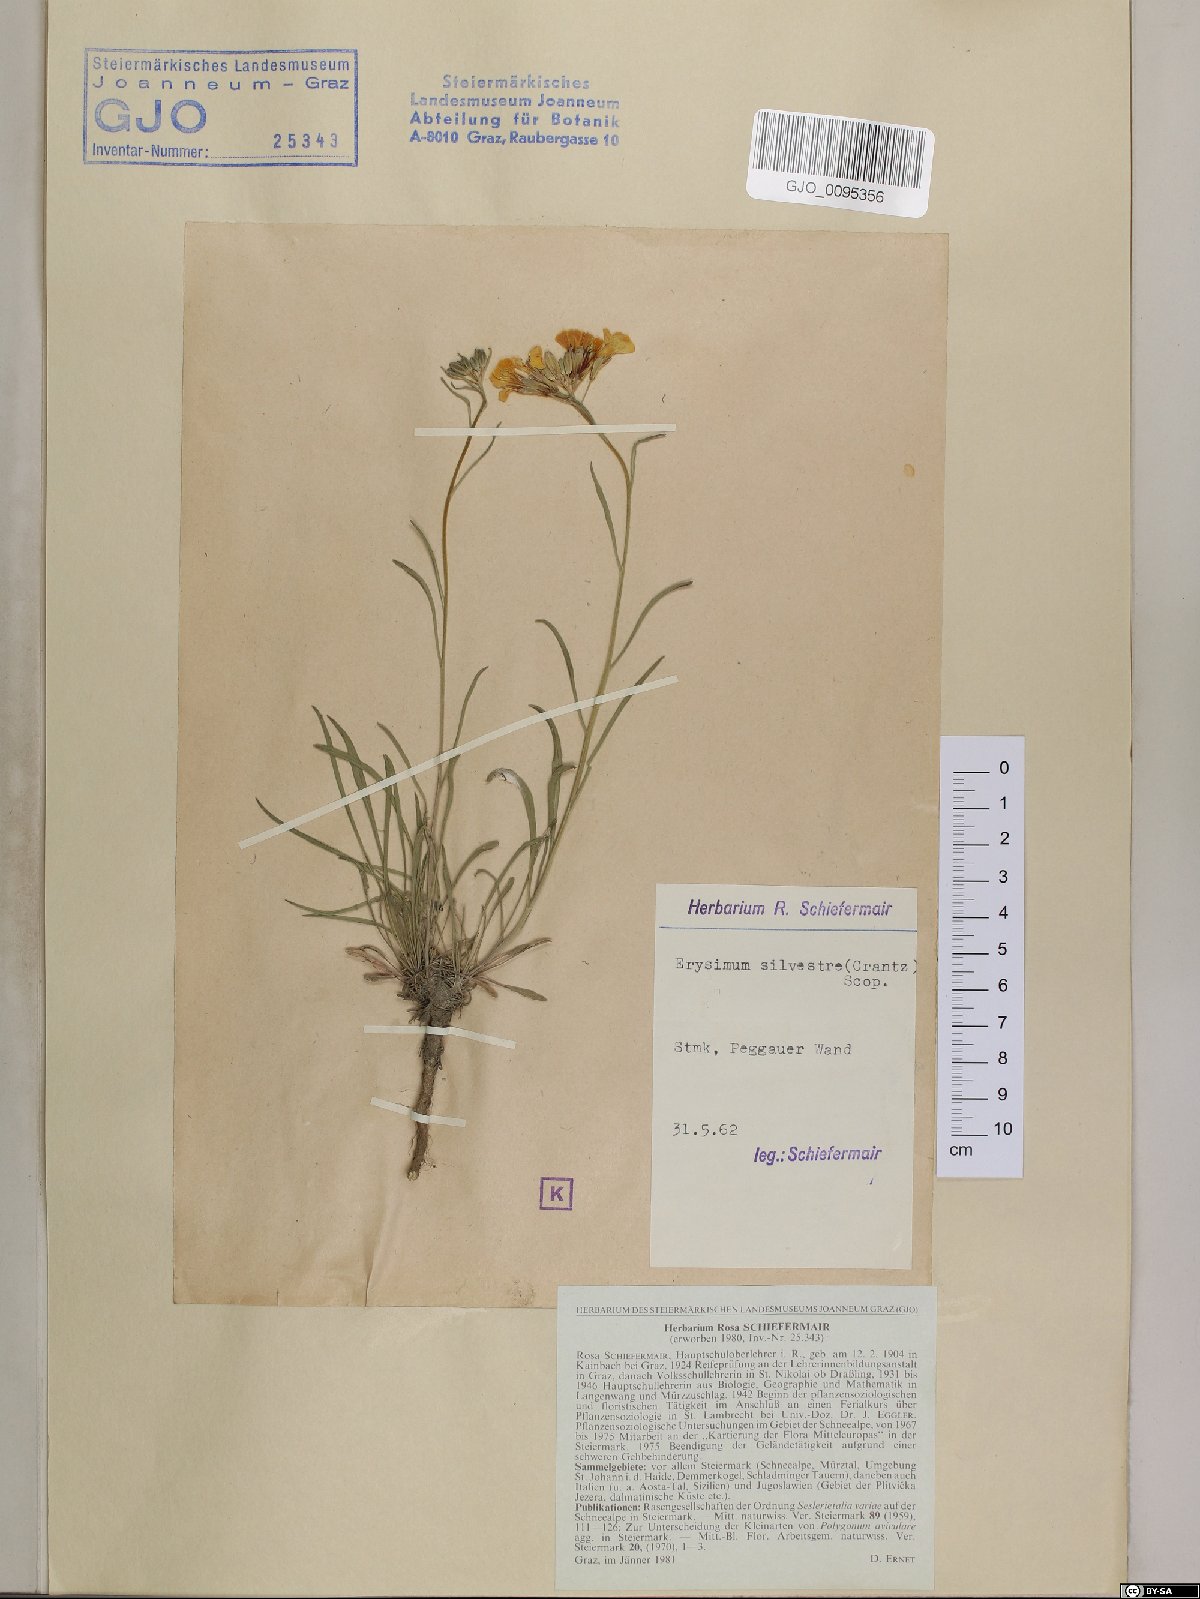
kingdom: Plantae
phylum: Tracheophyta
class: Magnoliopsida
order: Brassicales
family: Brassicaceae
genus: Erysimum
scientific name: Erysimum sylvestre
